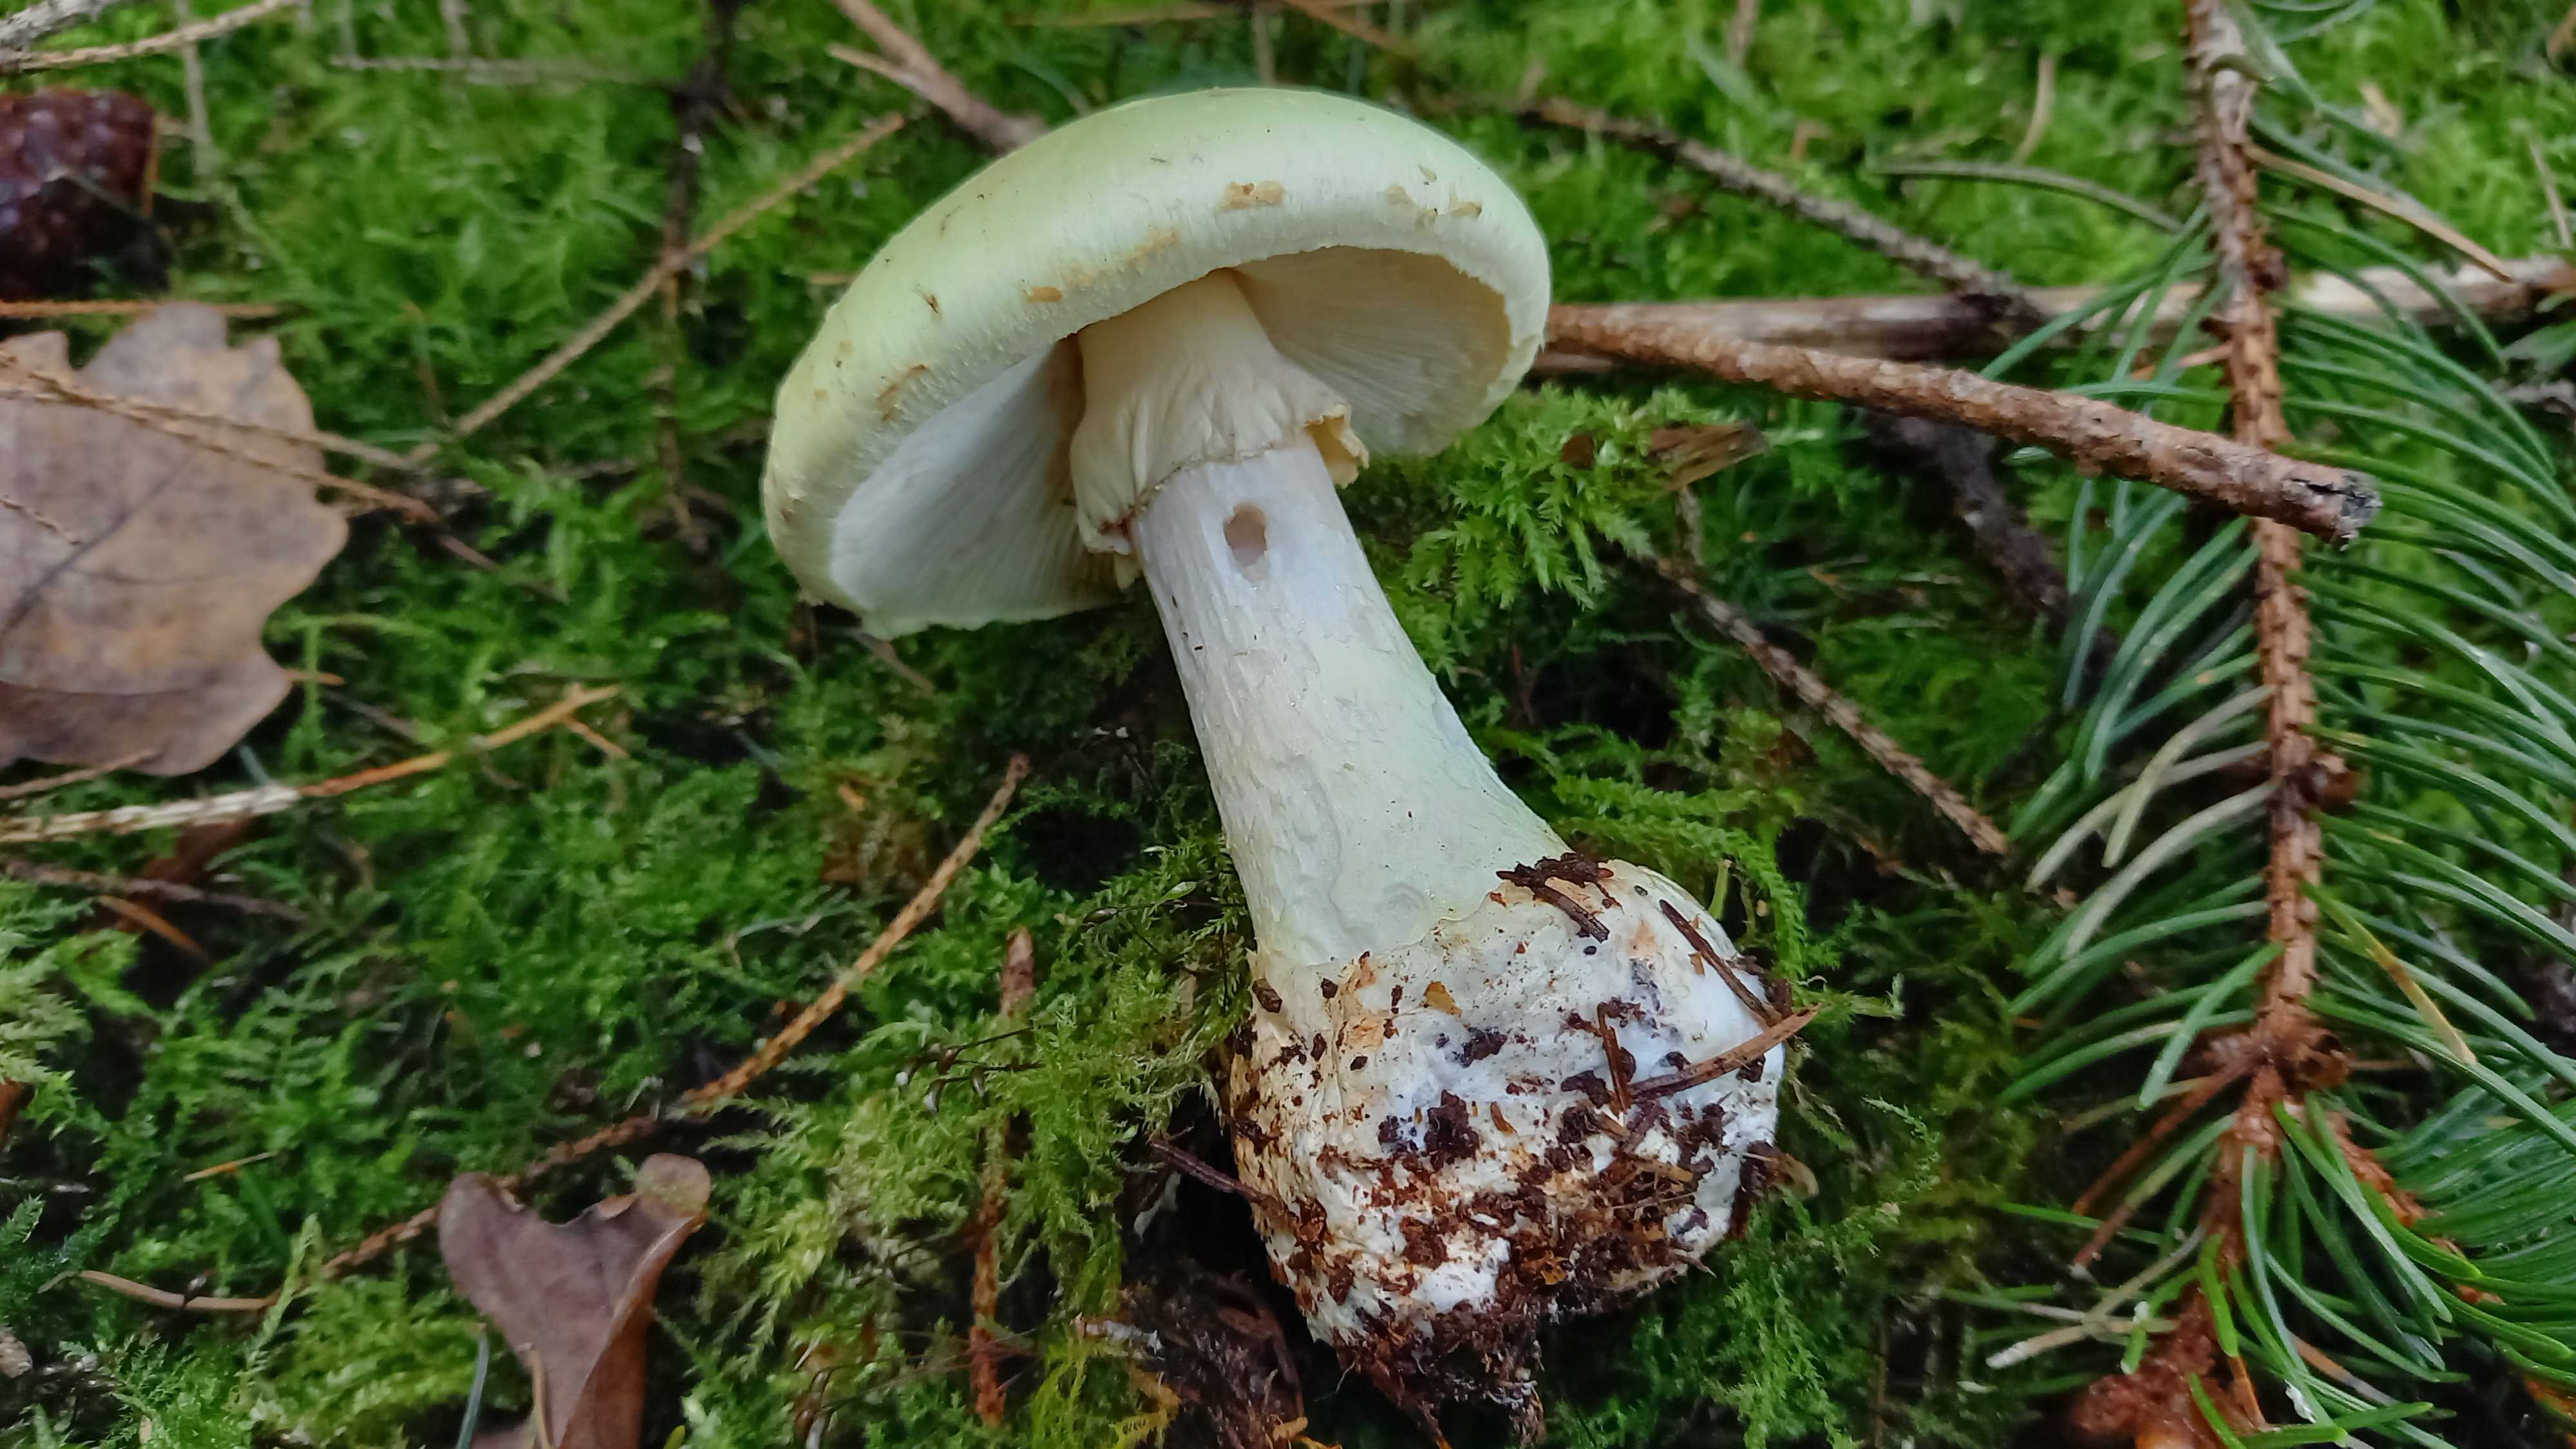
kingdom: Fungi
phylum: Basidiomycota
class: Agaricomycetes
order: Agaricales
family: Amanitaceae
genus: Amanita
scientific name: Amanita phalloides
